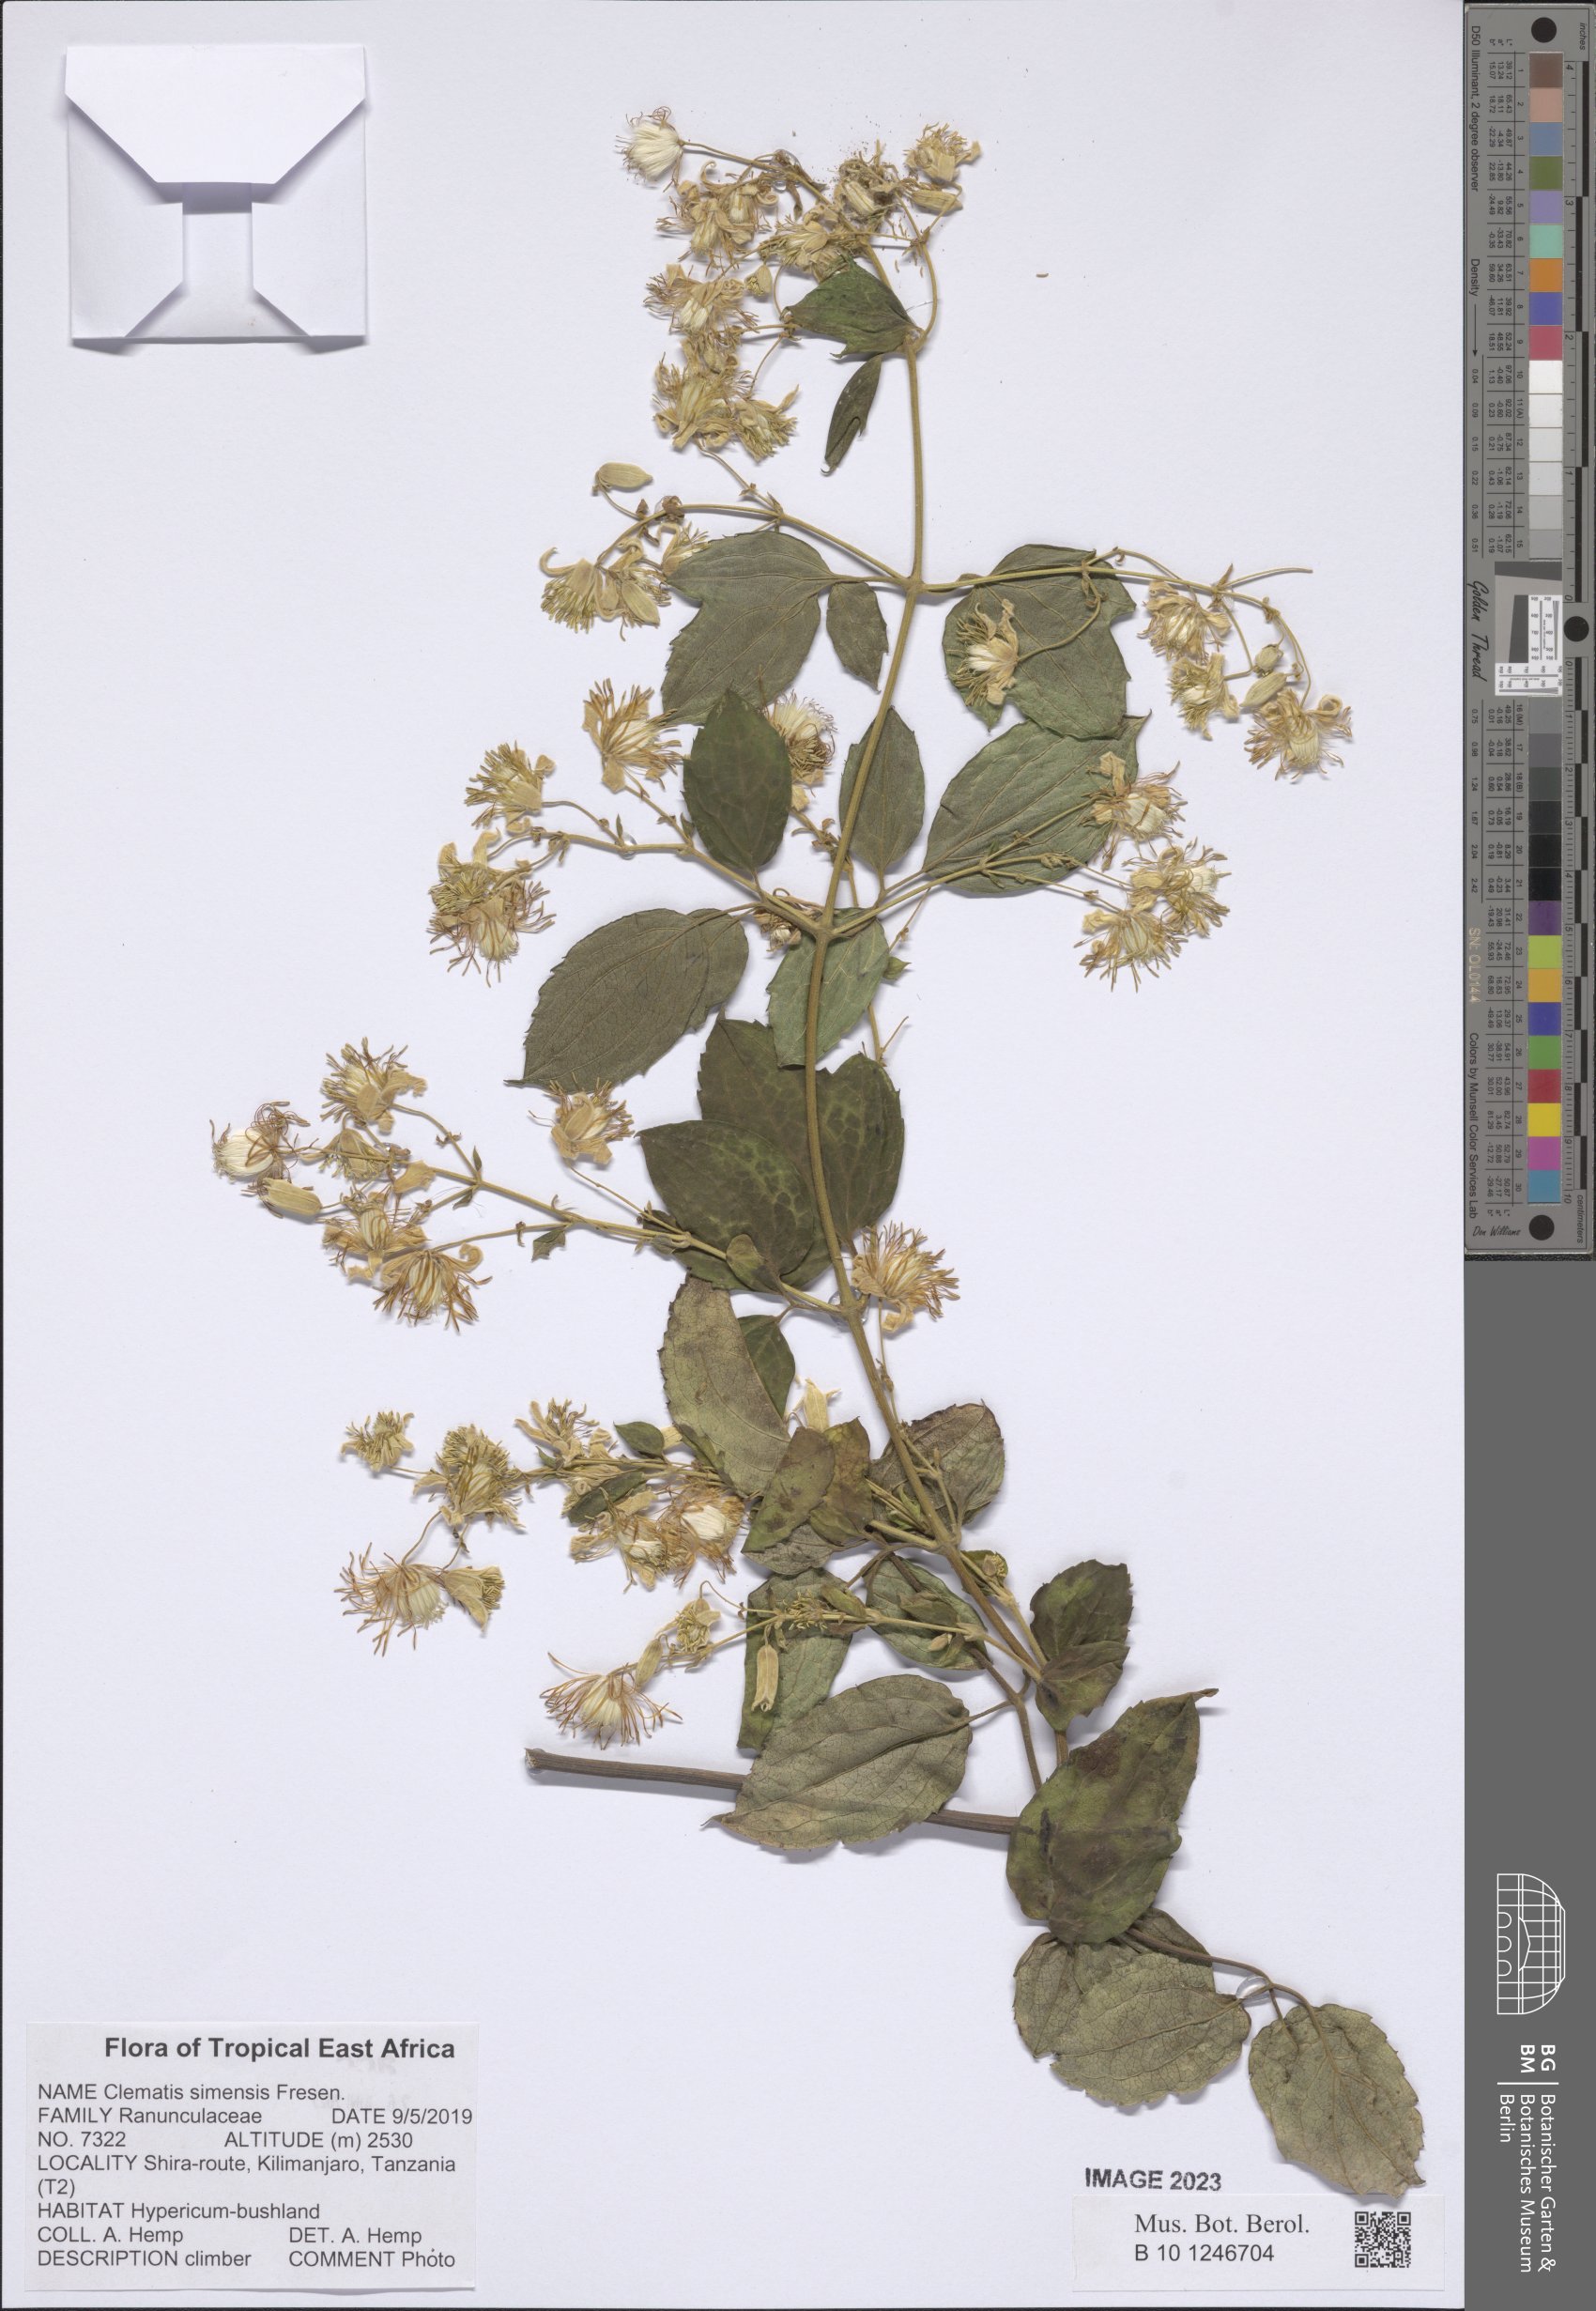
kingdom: Plantae
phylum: Tracheophyta
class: Magnoliopsida
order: Ranunculales
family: Ranunculaceae
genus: Clematis
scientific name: Clematis simensis
